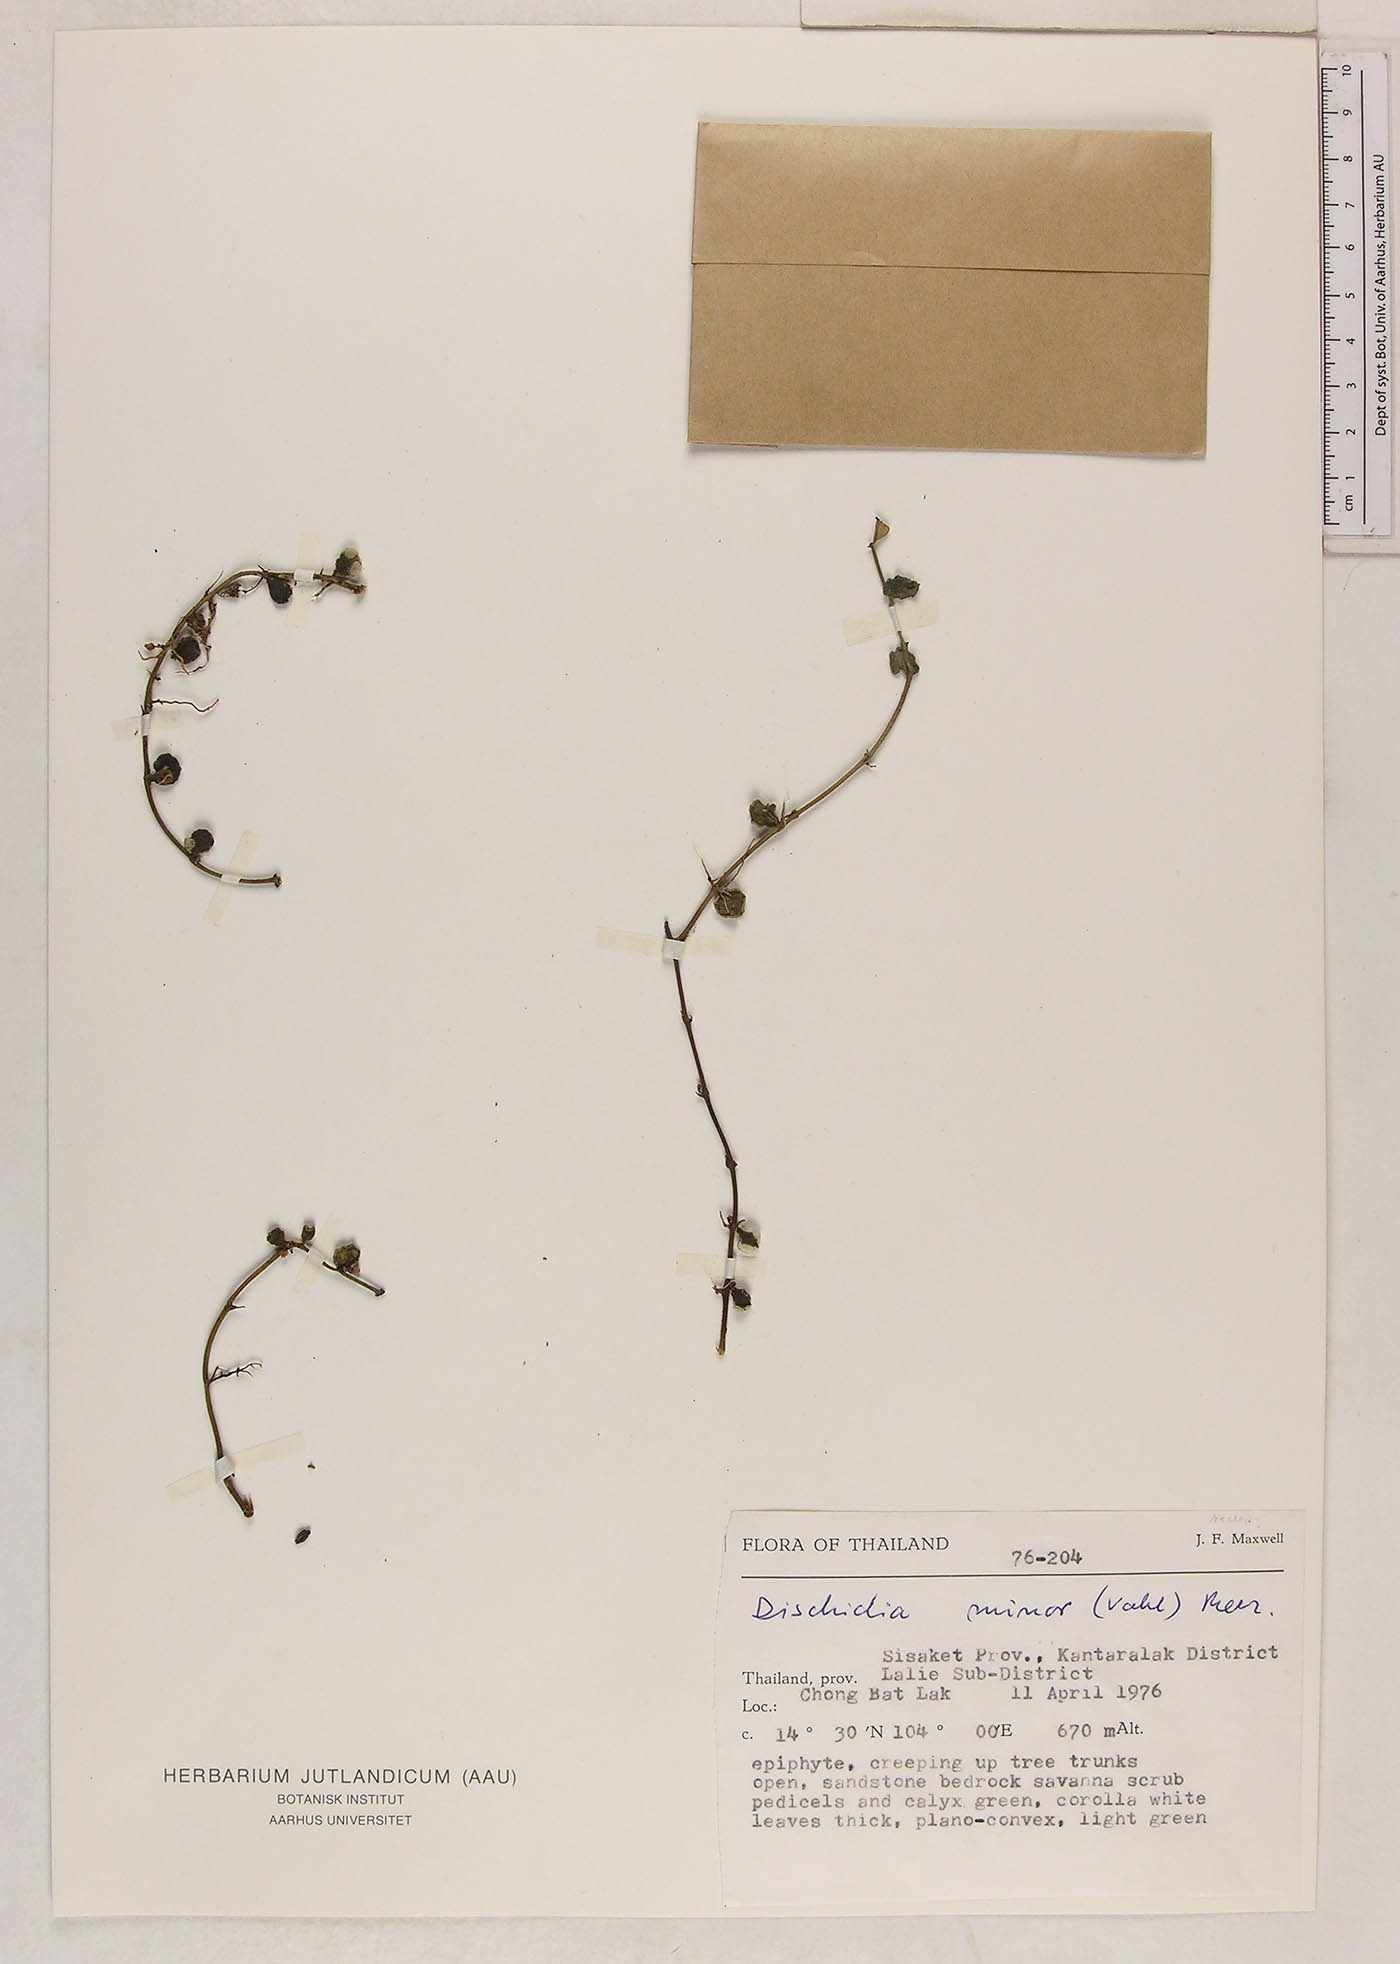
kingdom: Plantae
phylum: Tracheophyta
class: Magnoliopsida
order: Gentianales
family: Apocynaceae
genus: Dischidia
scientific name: Dischidia nummularia
